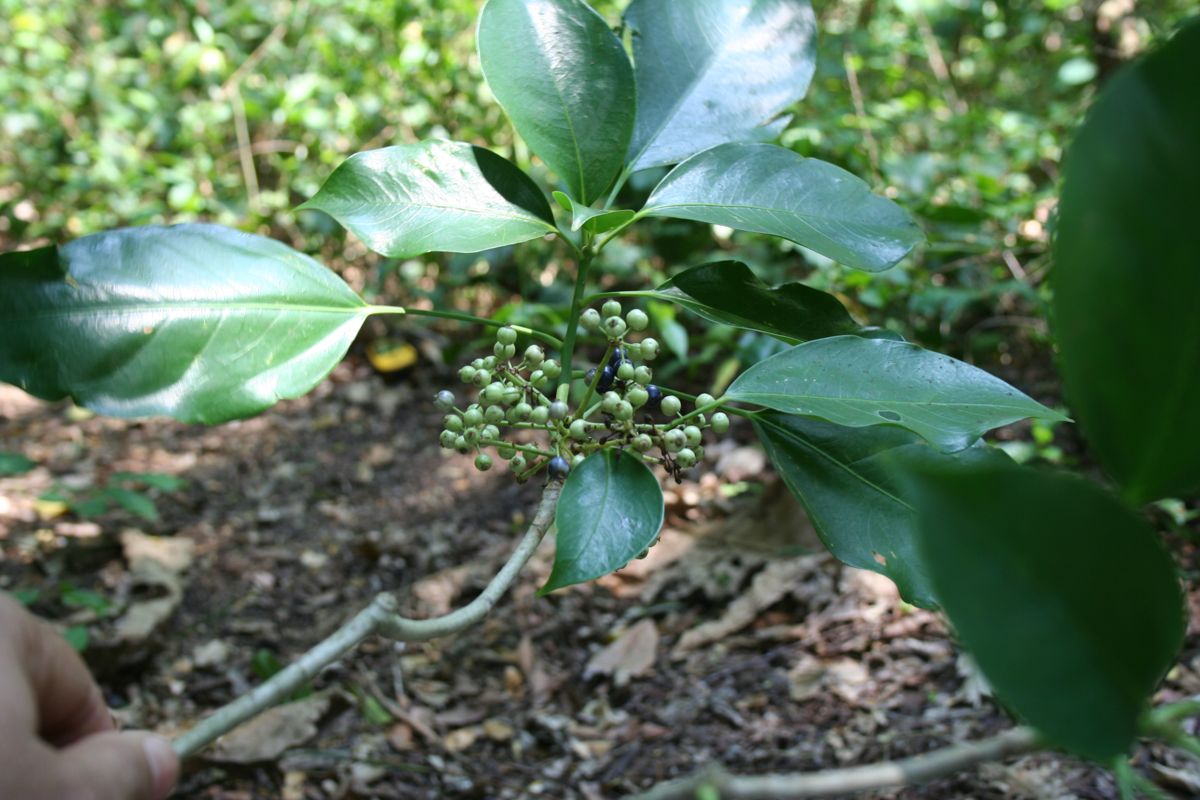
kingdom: Plantae
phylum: Tracheophyta
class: Magnoliopsida
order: Apiales
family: Araliaceae
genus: Dendropanax
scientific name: Dendropanax arboreus
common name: Potato-wood
